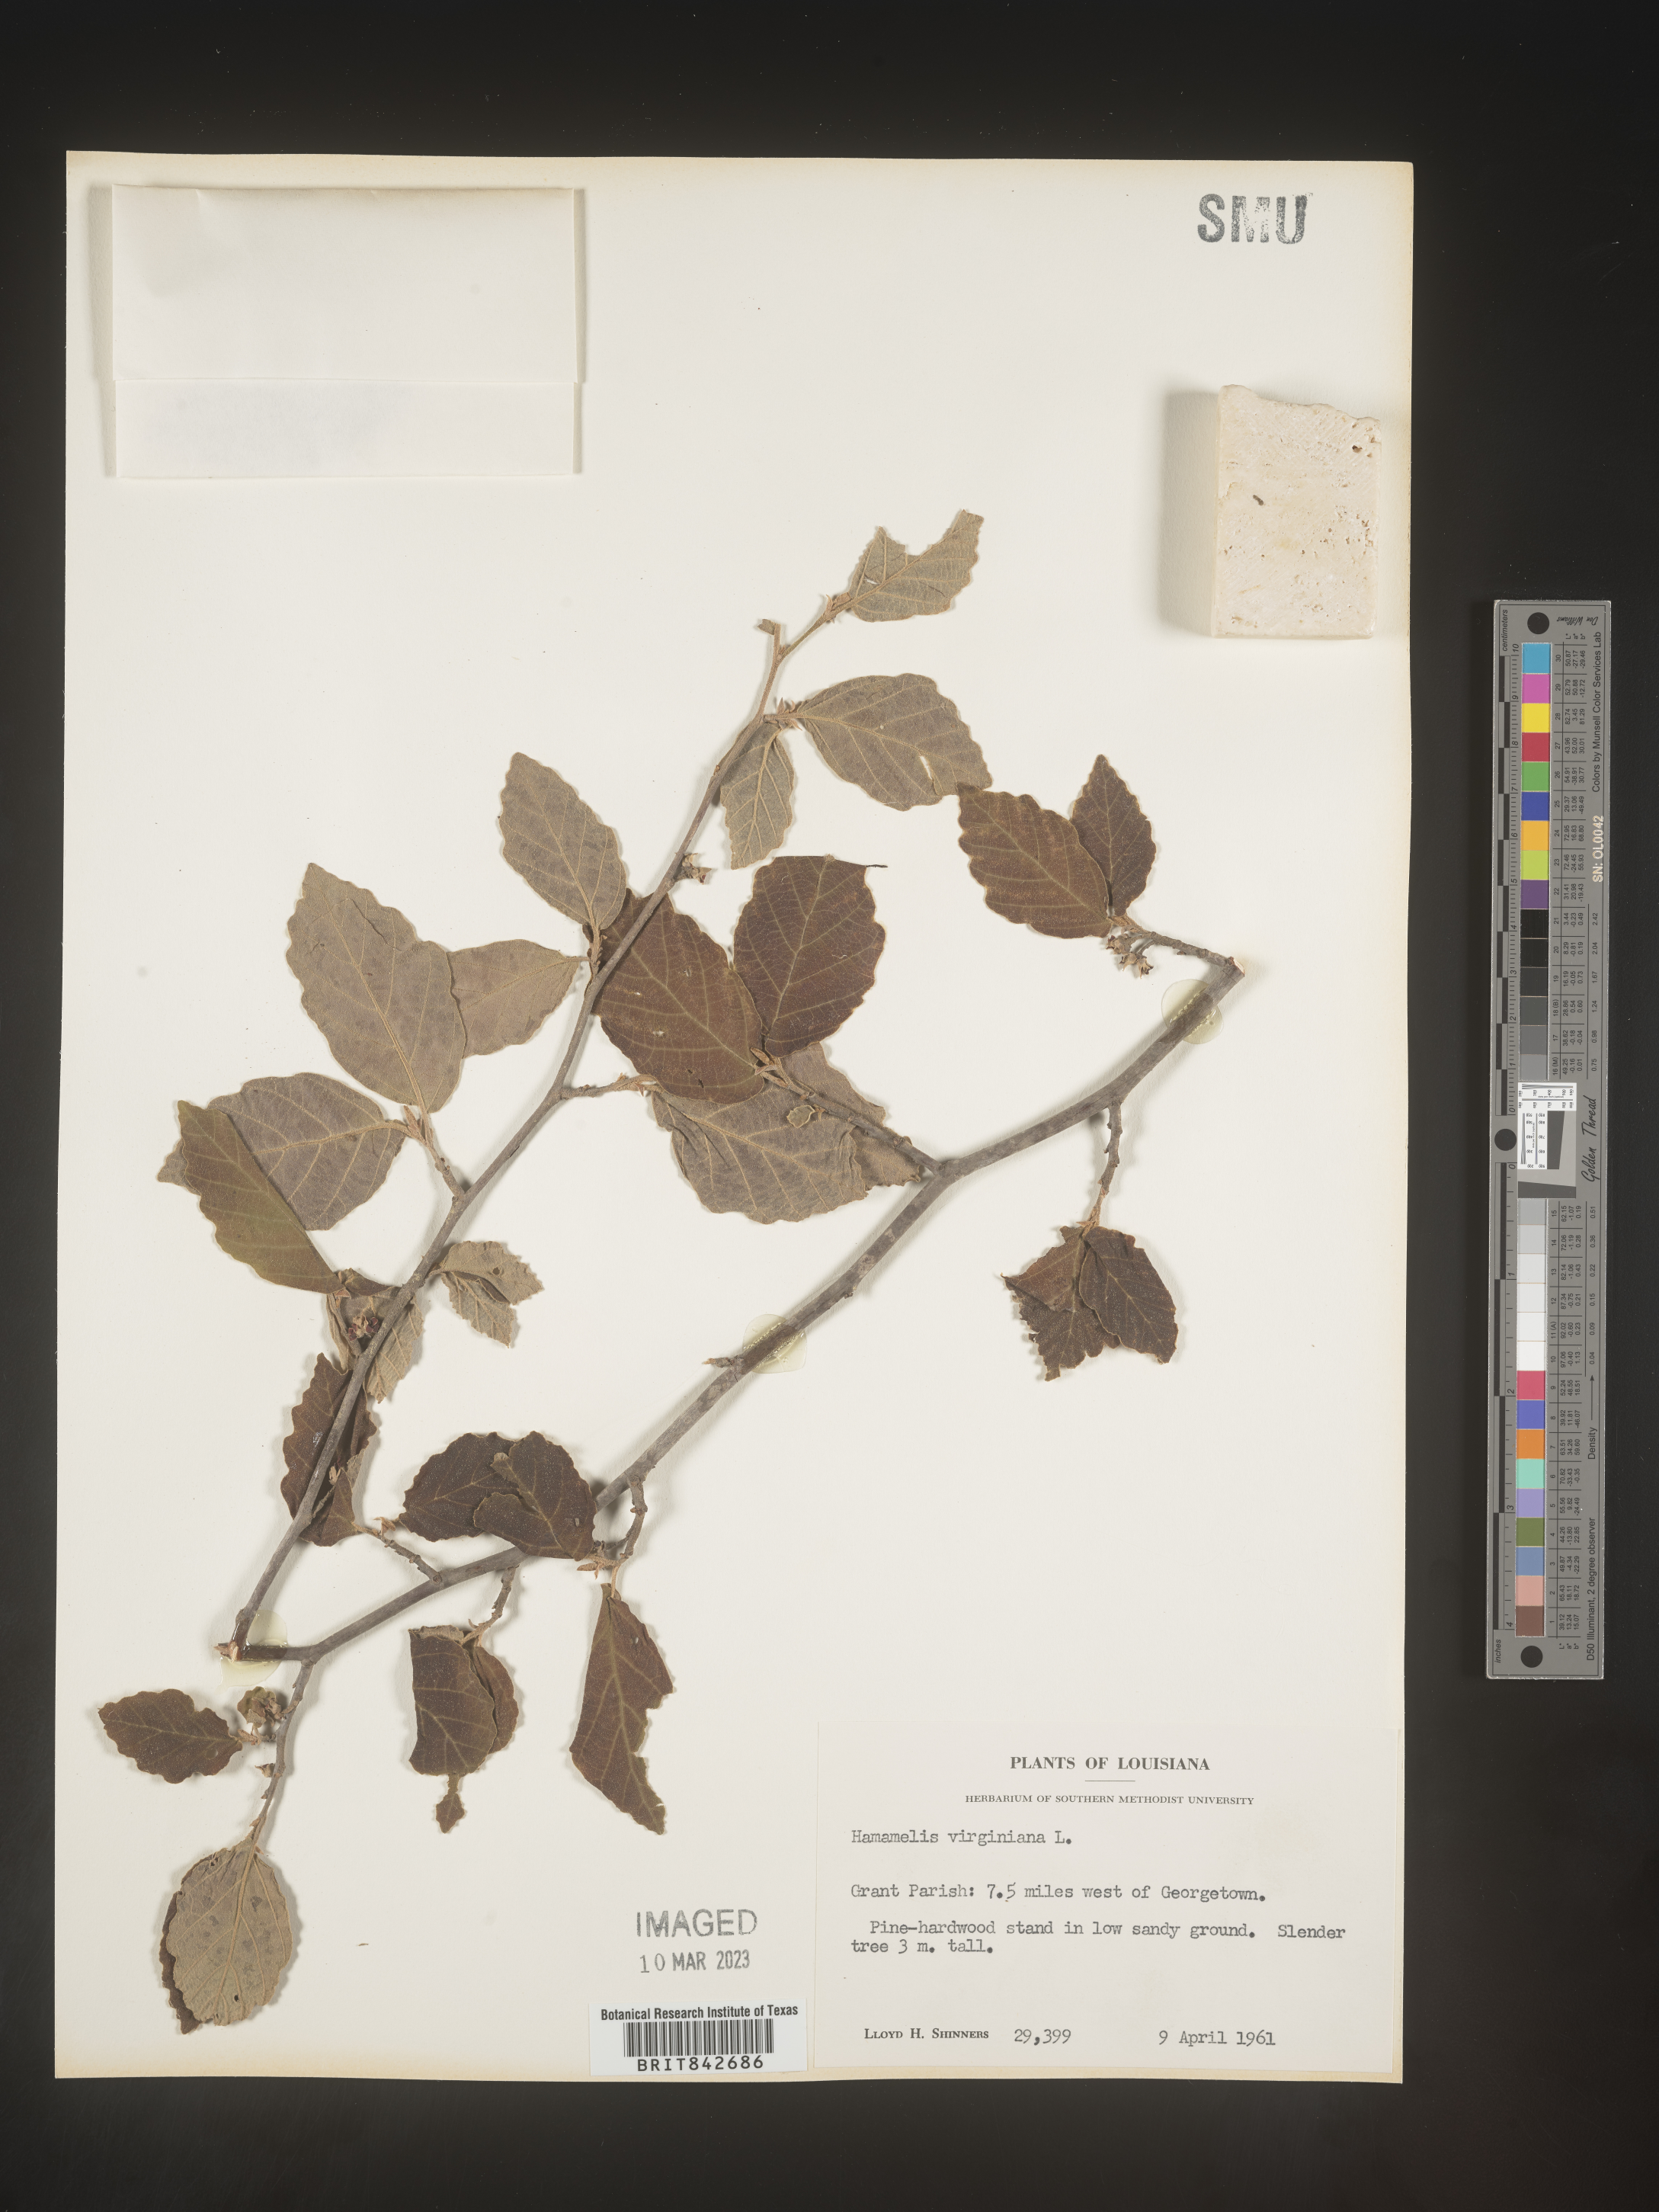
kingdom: Plantae
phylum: Tracheophyta
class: Magnoliopsida
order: Saxifragales
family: Hamamelidaceae
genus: Hamamelis
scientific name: Hamamelis virginiana
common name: Witch-hazel
